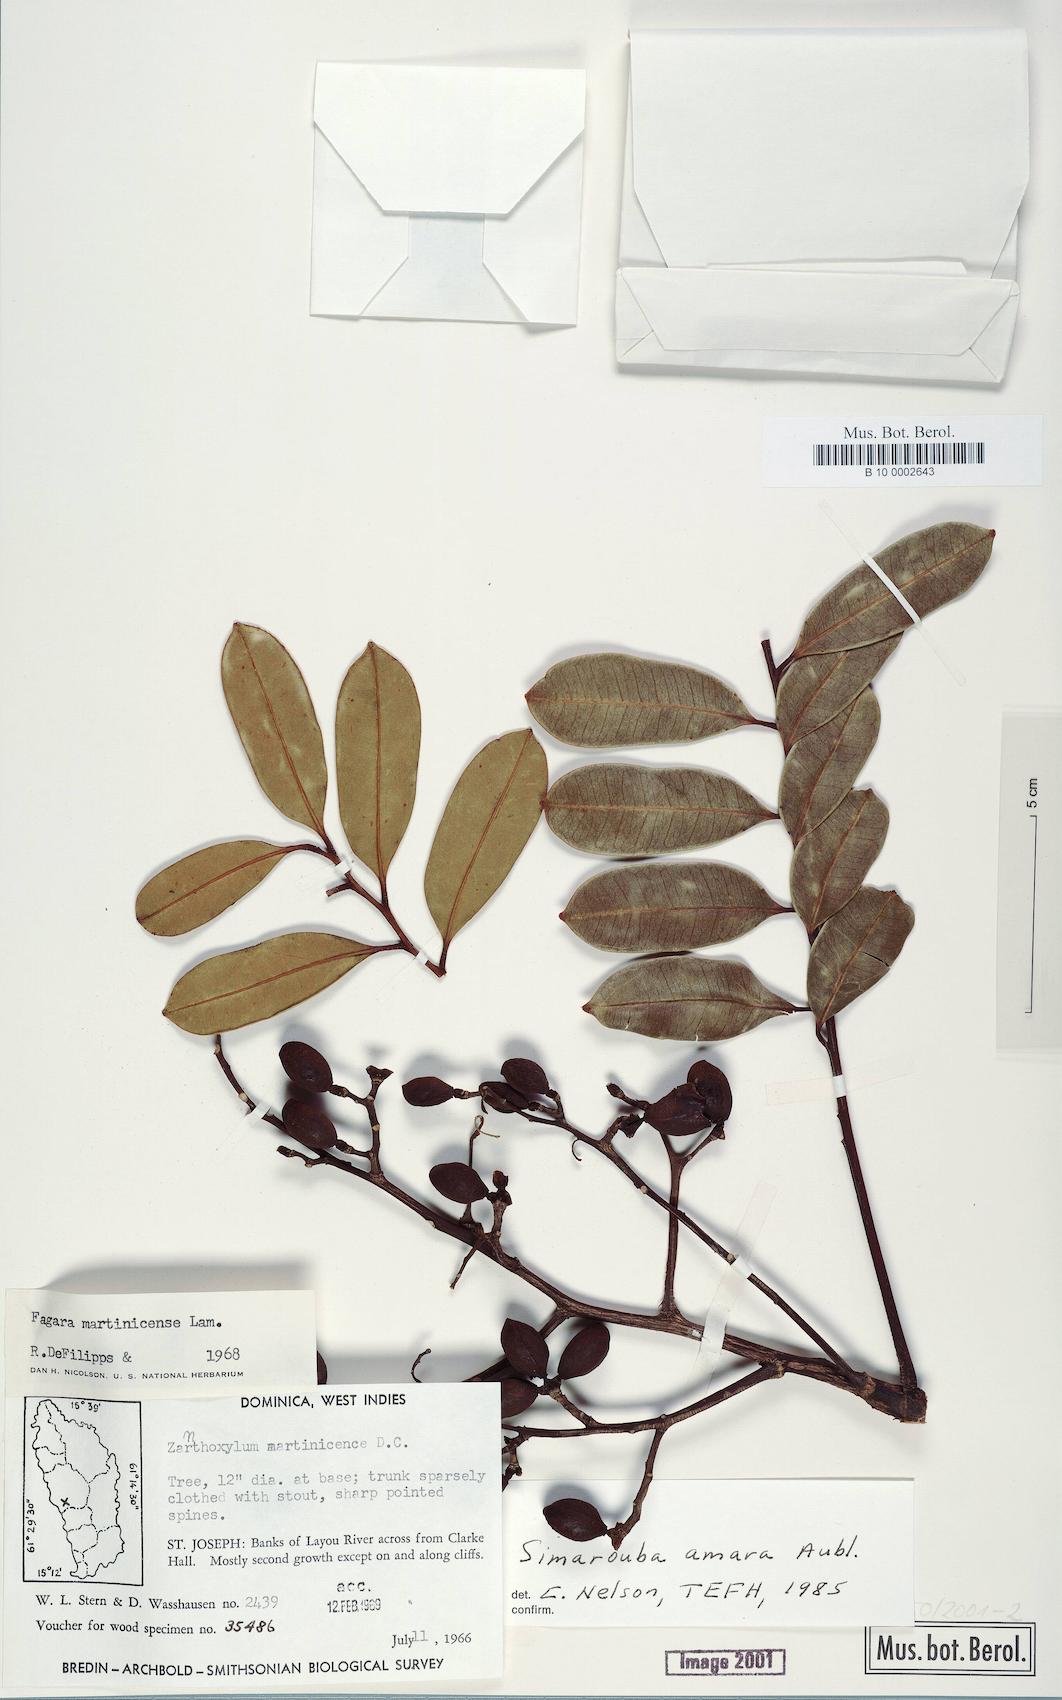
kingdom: Plantae
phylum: Tracheophyta
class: Magnoliopsida
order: Sapindales
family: Simaroubaceae
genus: Simarouba
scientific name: Simarouba amara
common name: Bitterwood
